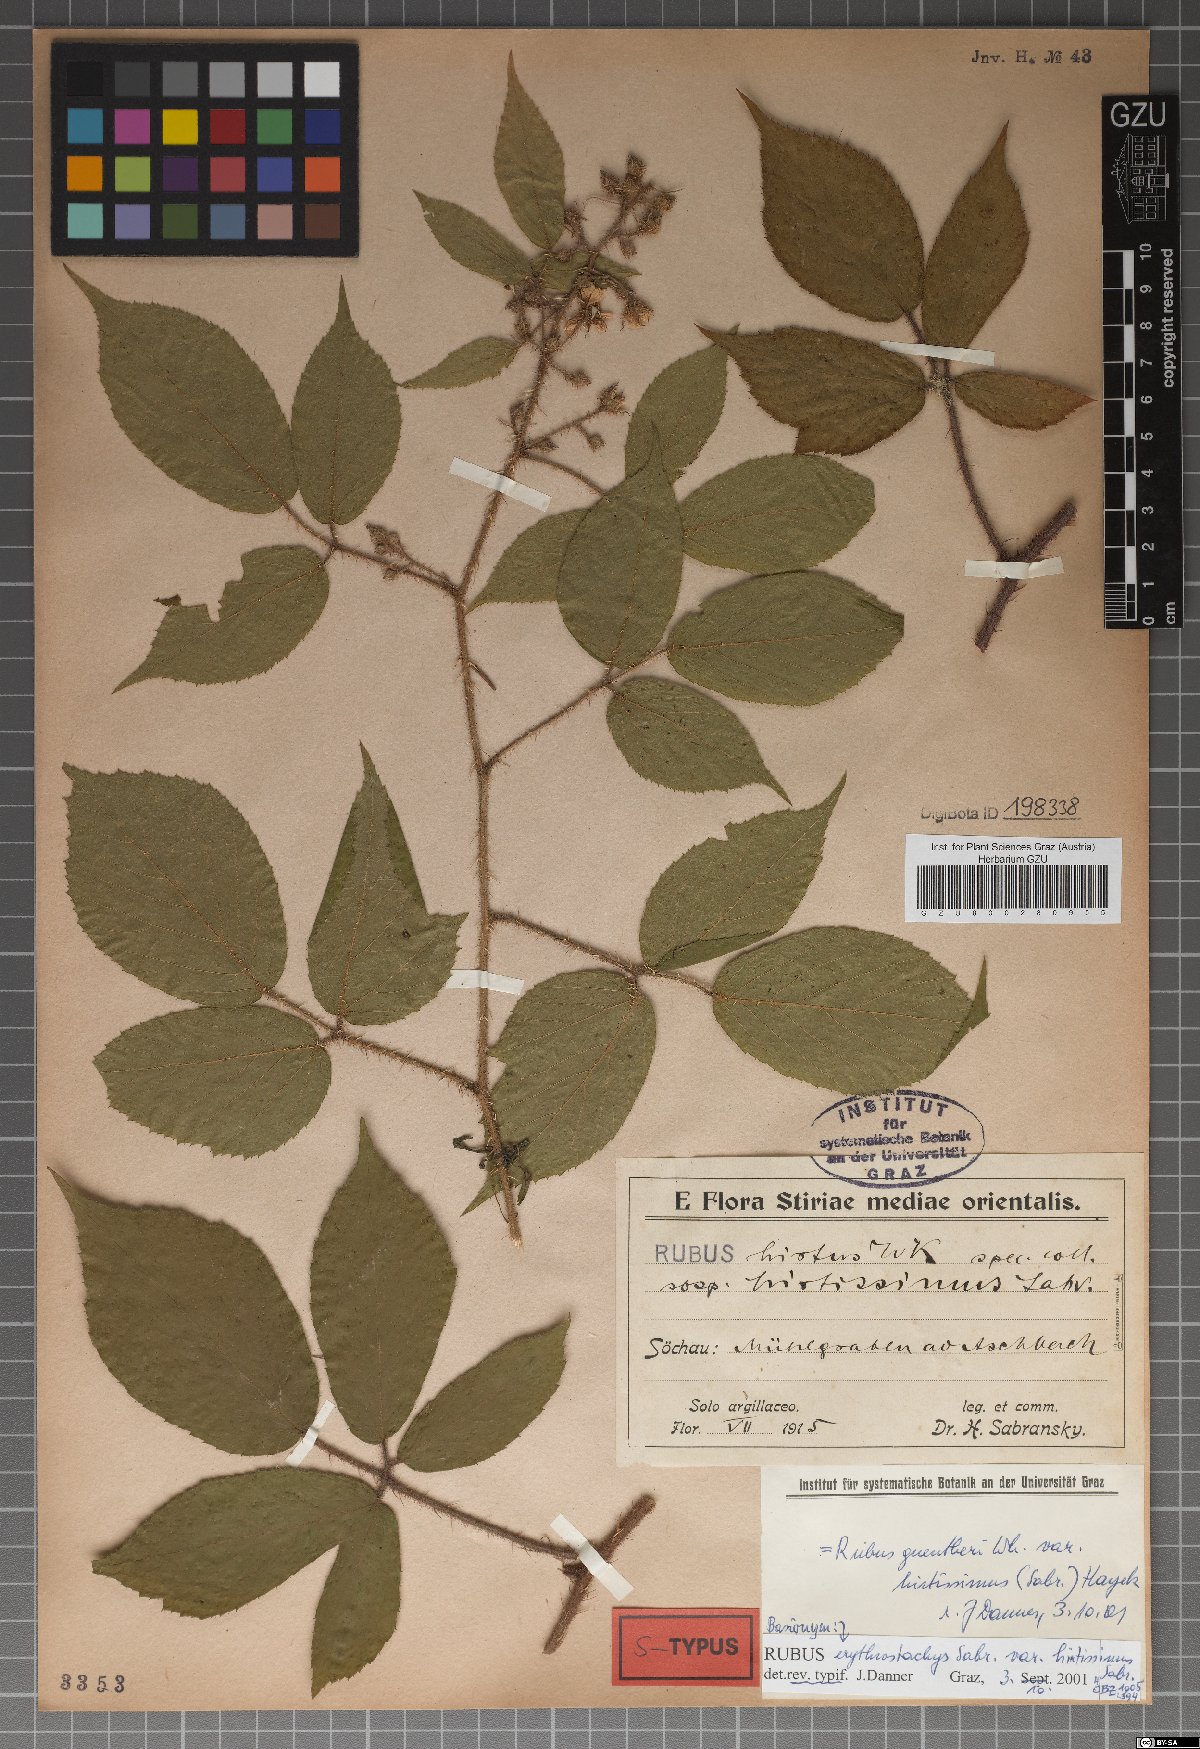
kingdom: Plantae
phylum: Tracheophyta
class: Magnoliopsida
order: Rosales
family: Rosaceae
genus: Rubus
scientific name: Rubus guentheri
